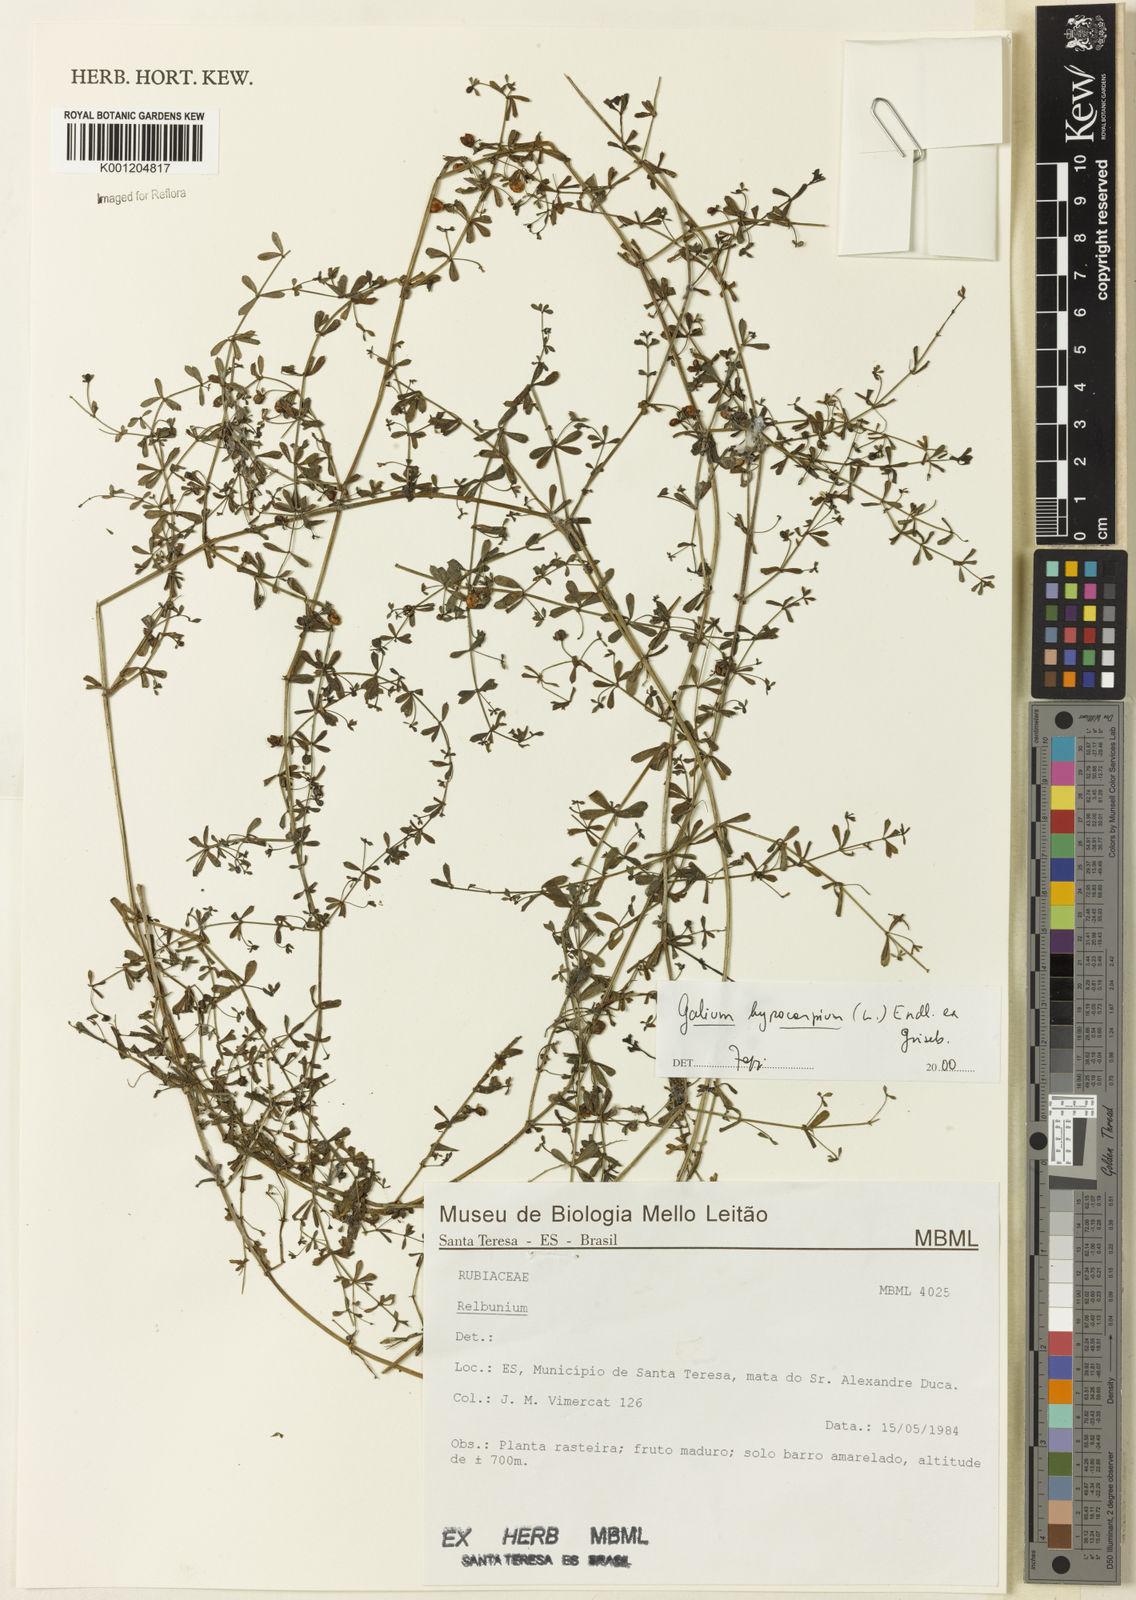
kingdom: Plantae
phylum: Tracheophyta
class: Magnoliopsida
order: Gentianales
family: Rubiaceae
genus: Galium
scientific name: Galium hypocarpium
